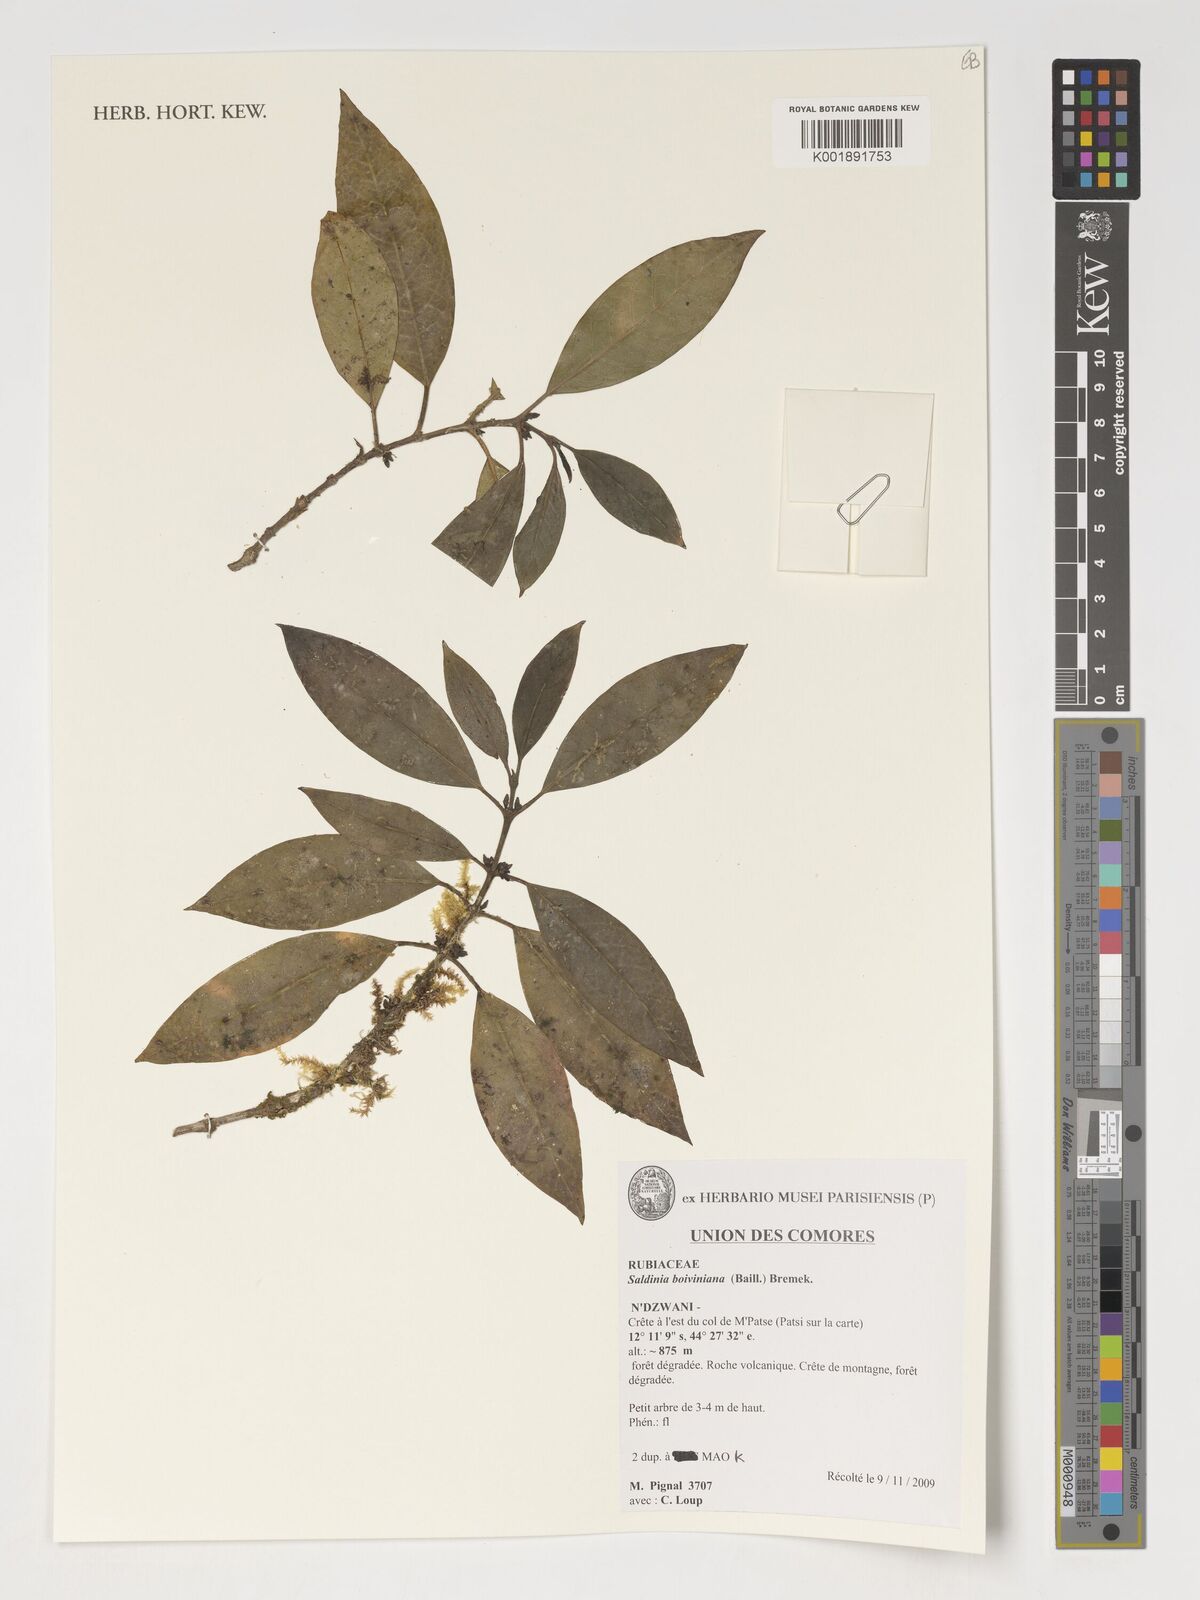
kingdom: Plantae
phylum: Tracheophyta
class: Magnoliopsida
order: Gentianales
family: Rubiaceae
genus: Saldinia
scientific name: Saldinia boiviniana
